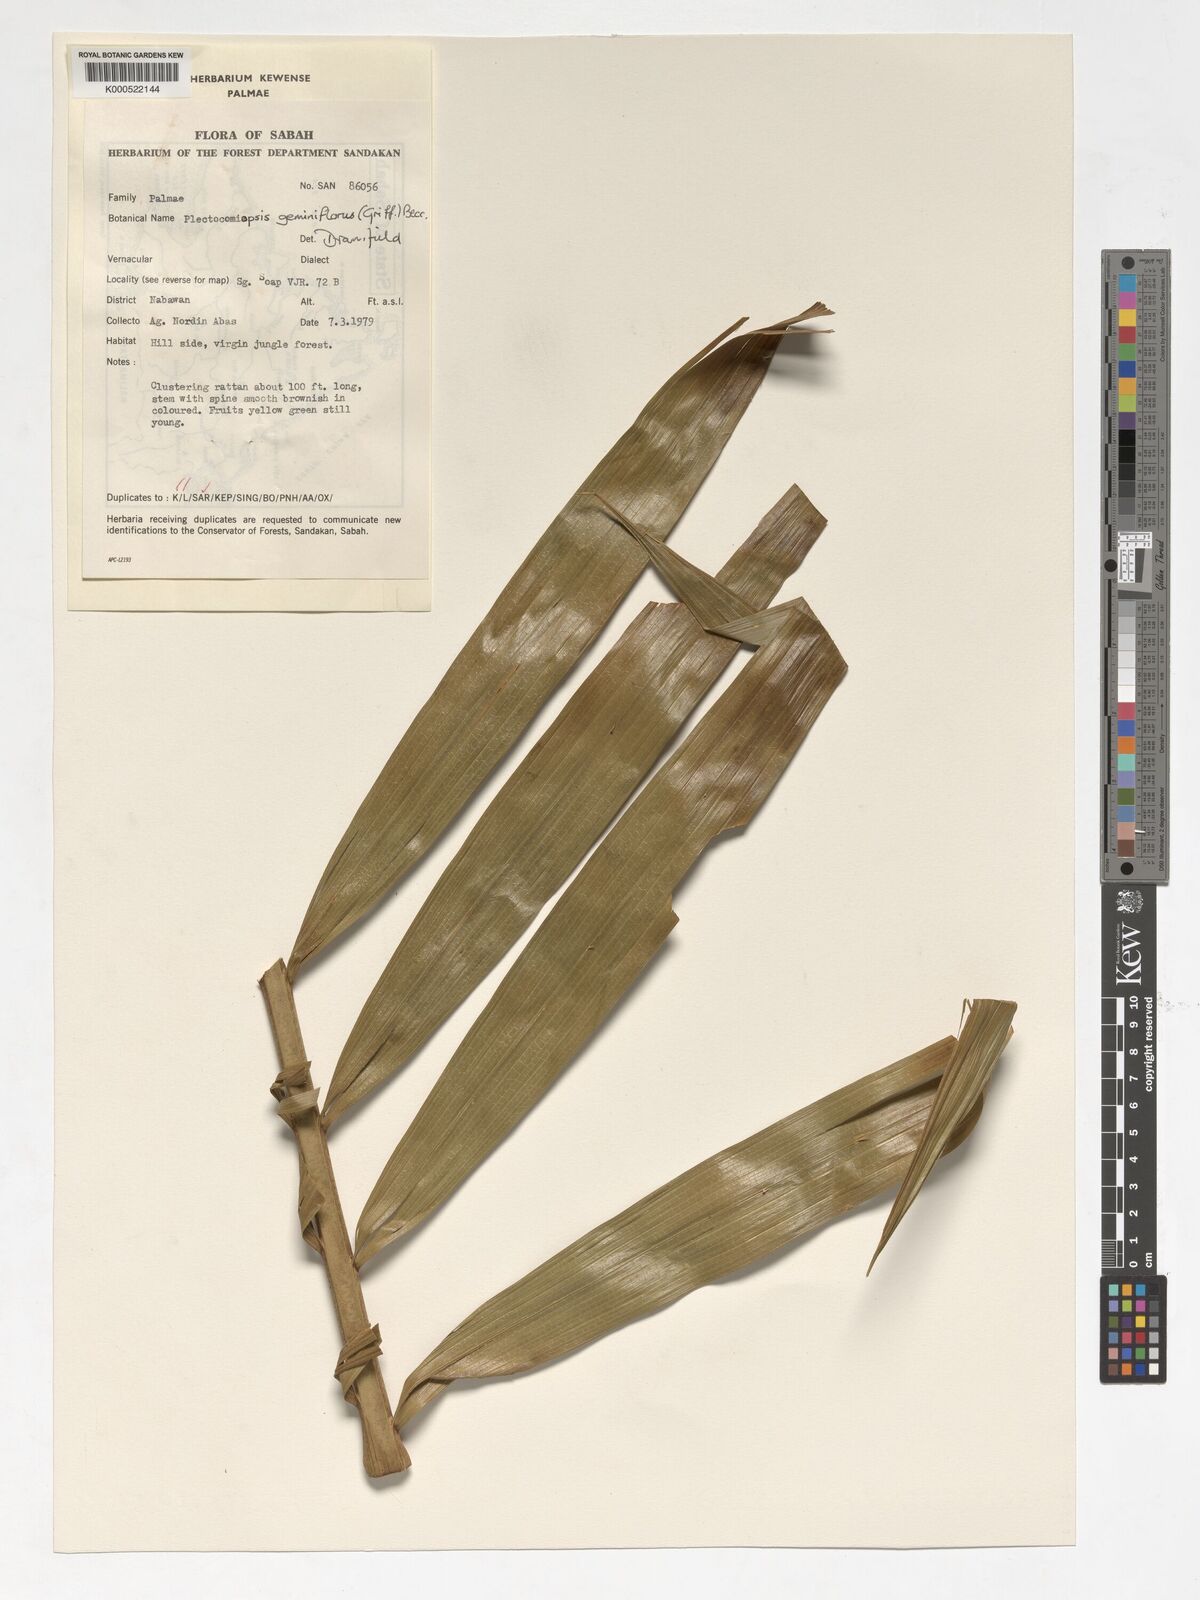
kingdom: Plantae
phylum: Tracheophyta
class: Liliopsida
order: Arecales
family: Arecaceae
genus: Plectocomiopsis
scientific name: Plectocomiopsis geminiflora
